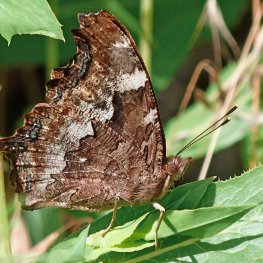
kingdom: Animalia
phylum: Arthropoda
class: Insecta
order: Lepidoptera
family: Nymphalidae
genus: Polygonia
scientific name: Polygonia faunus
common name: Green Comma
